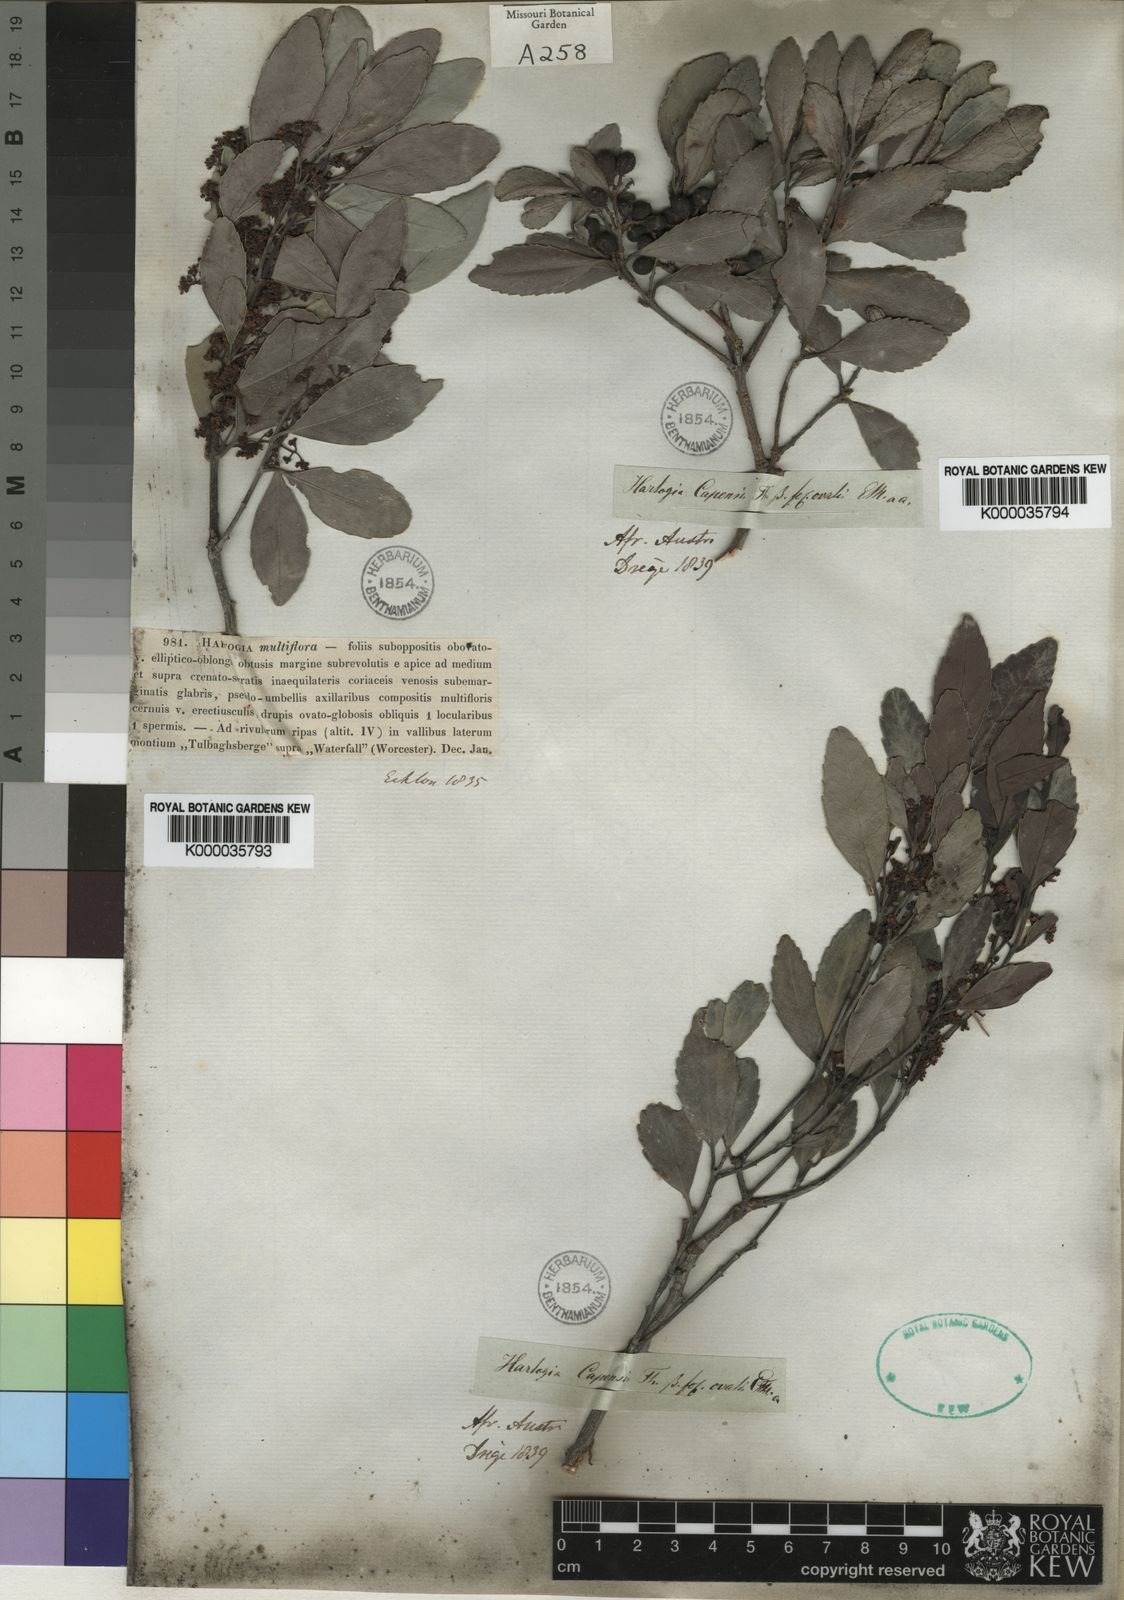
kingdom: Plantae
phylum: Tracheophyta
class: Magnoliopsida
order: Celastrales
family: Celastraceae
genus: Elaeodendron
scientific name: Elaeodendron schinoides
